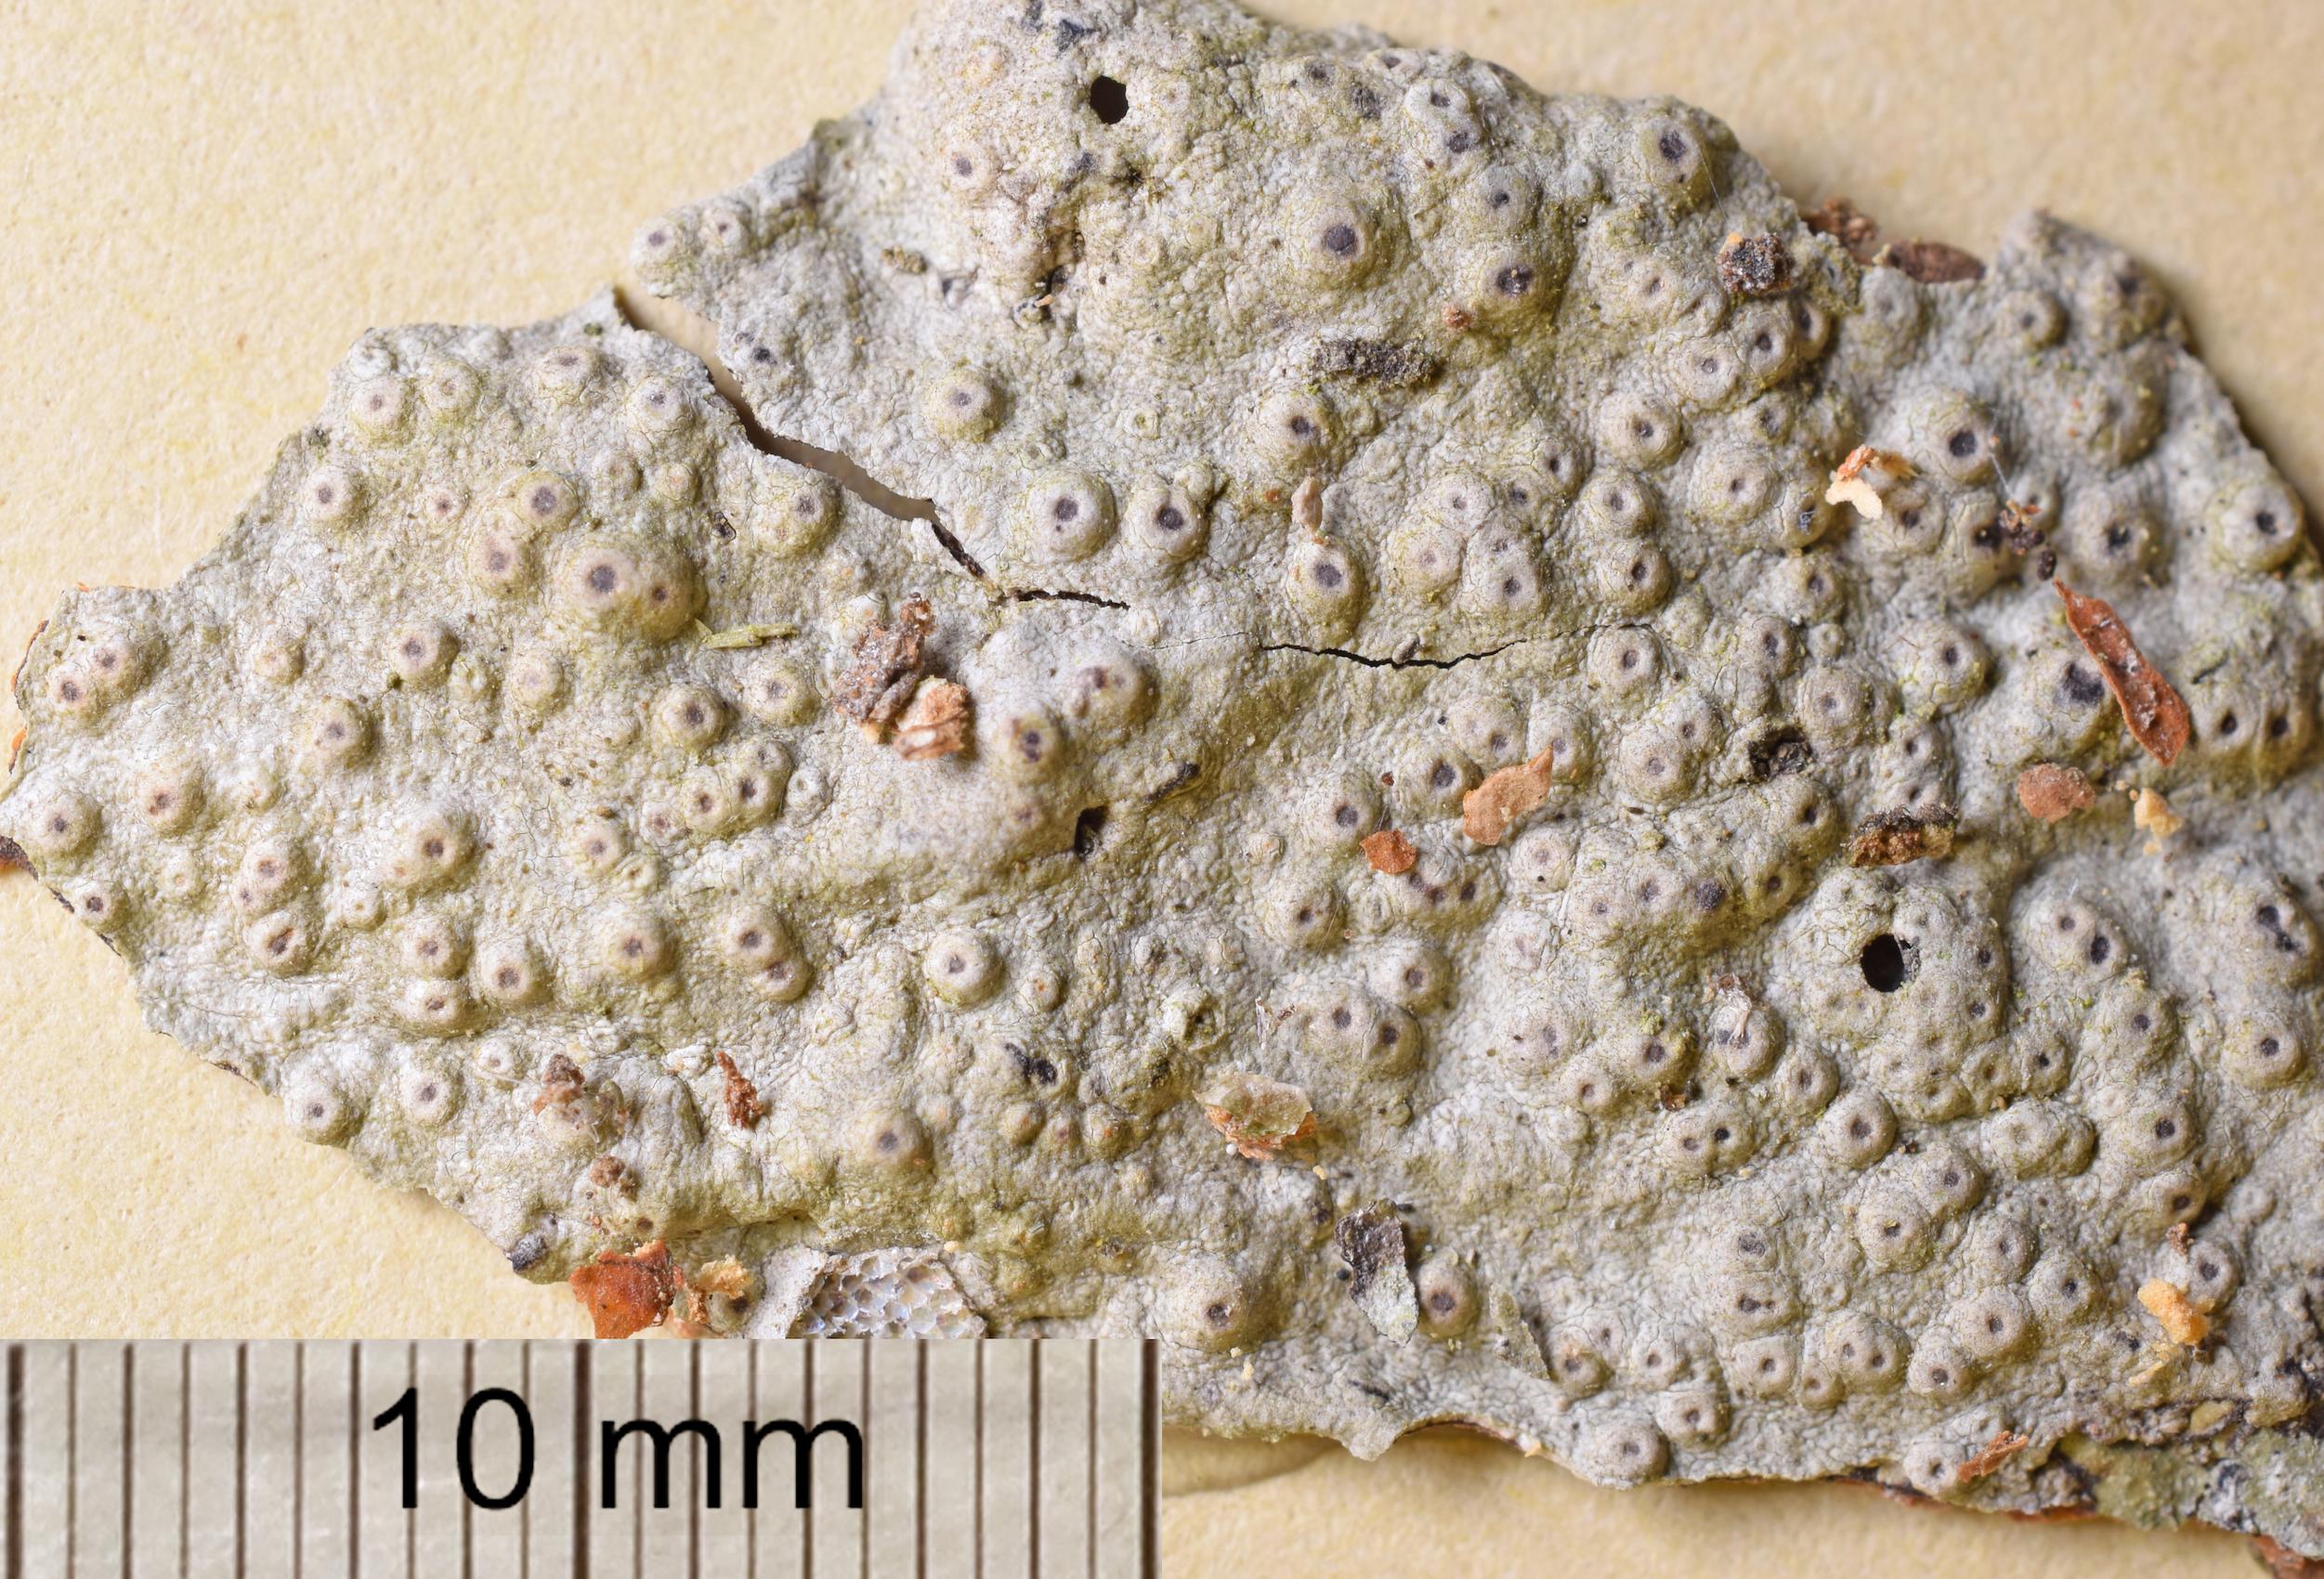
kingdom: Fungi
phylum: Ascomycota
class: Lecanoromycetes
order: Ostropales
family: Porinaceae
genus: Porina
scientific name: Porina
